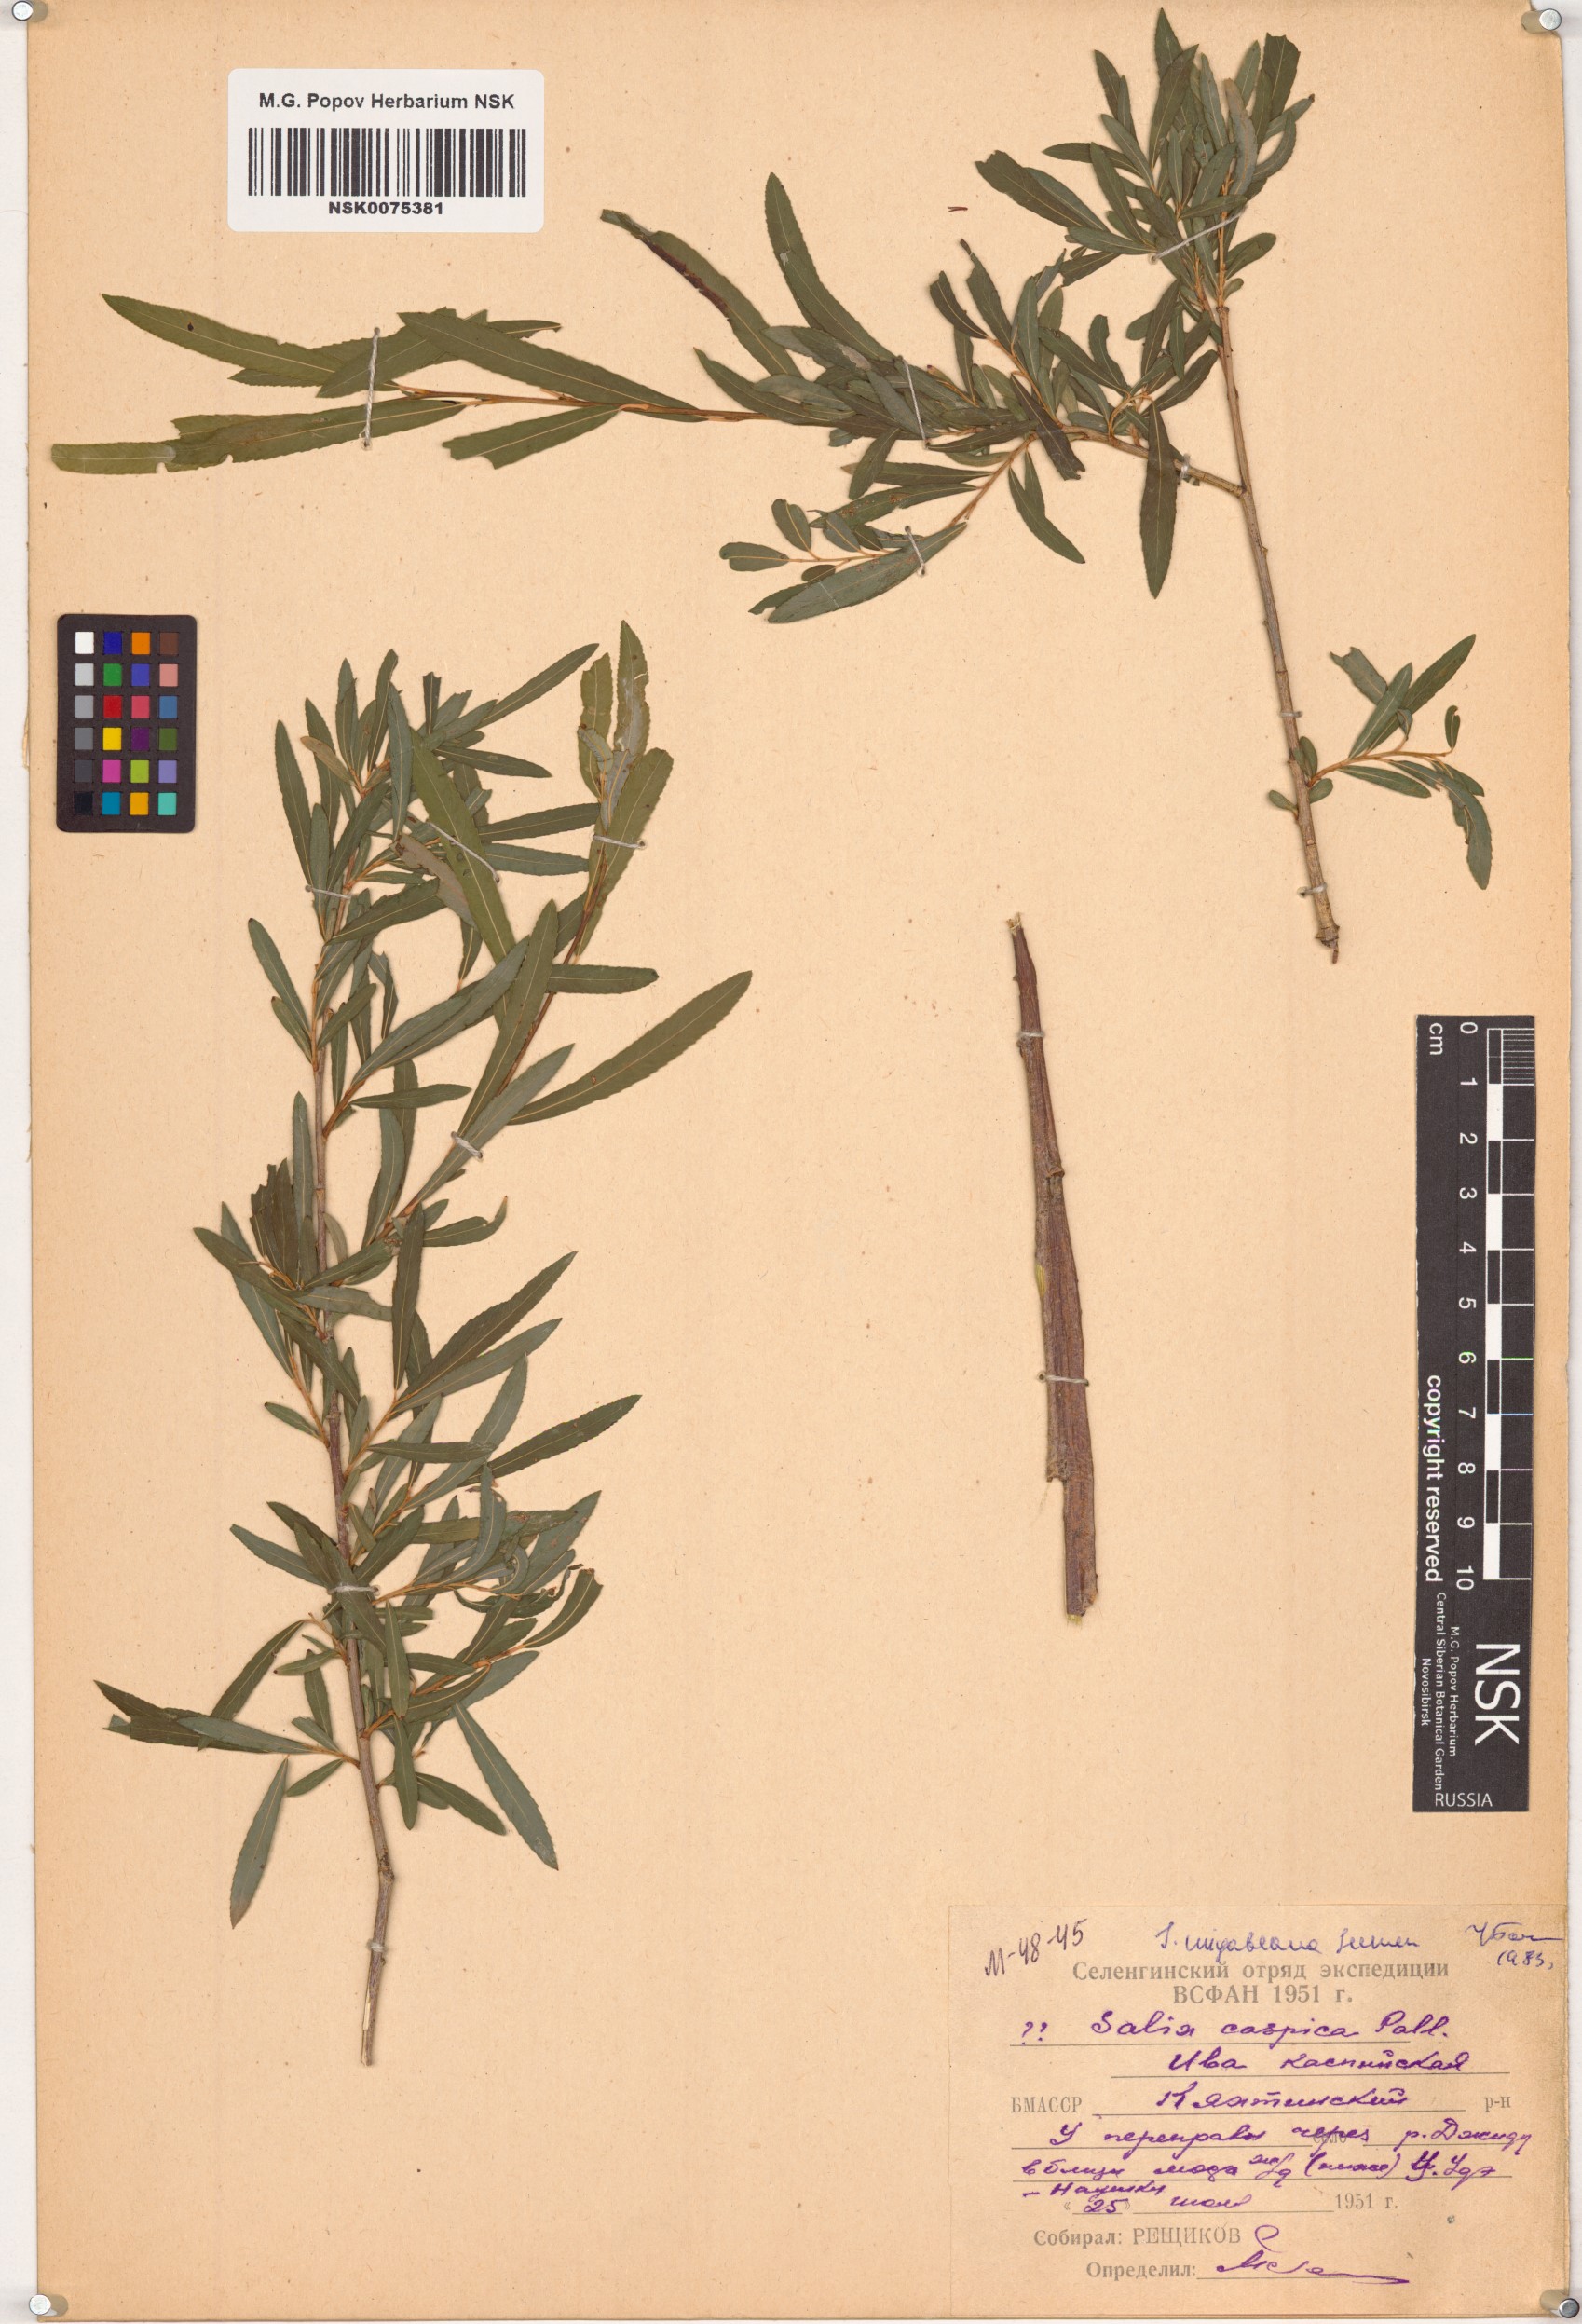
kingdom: Plantae
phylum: Tracheophyta
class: Magnoliopsida
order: Malpighiales
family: Salicaceae
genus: Salix
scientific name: Salix miyabeana
